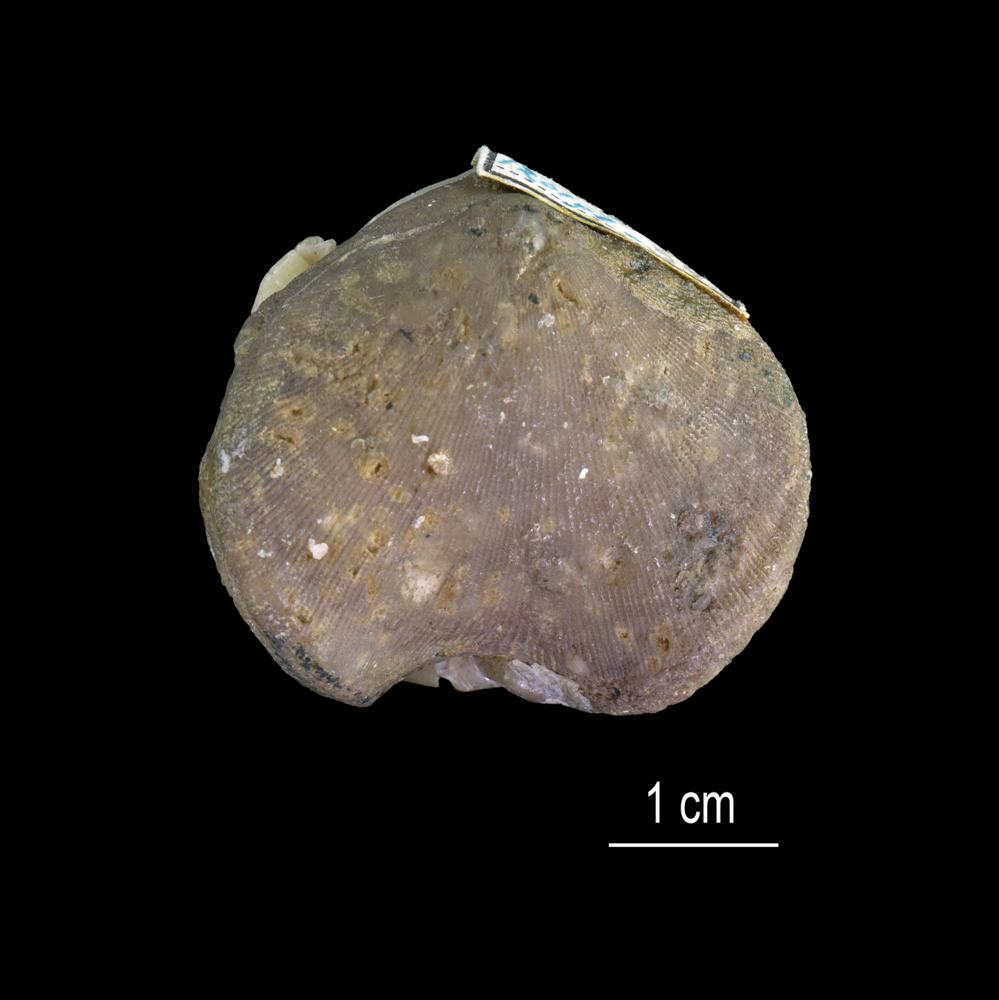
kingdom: Animalia
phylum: Brachiopoda
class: Rhynchonellata
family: Porambonitidae
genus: Porambonites
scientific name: Porambonites reticulata
